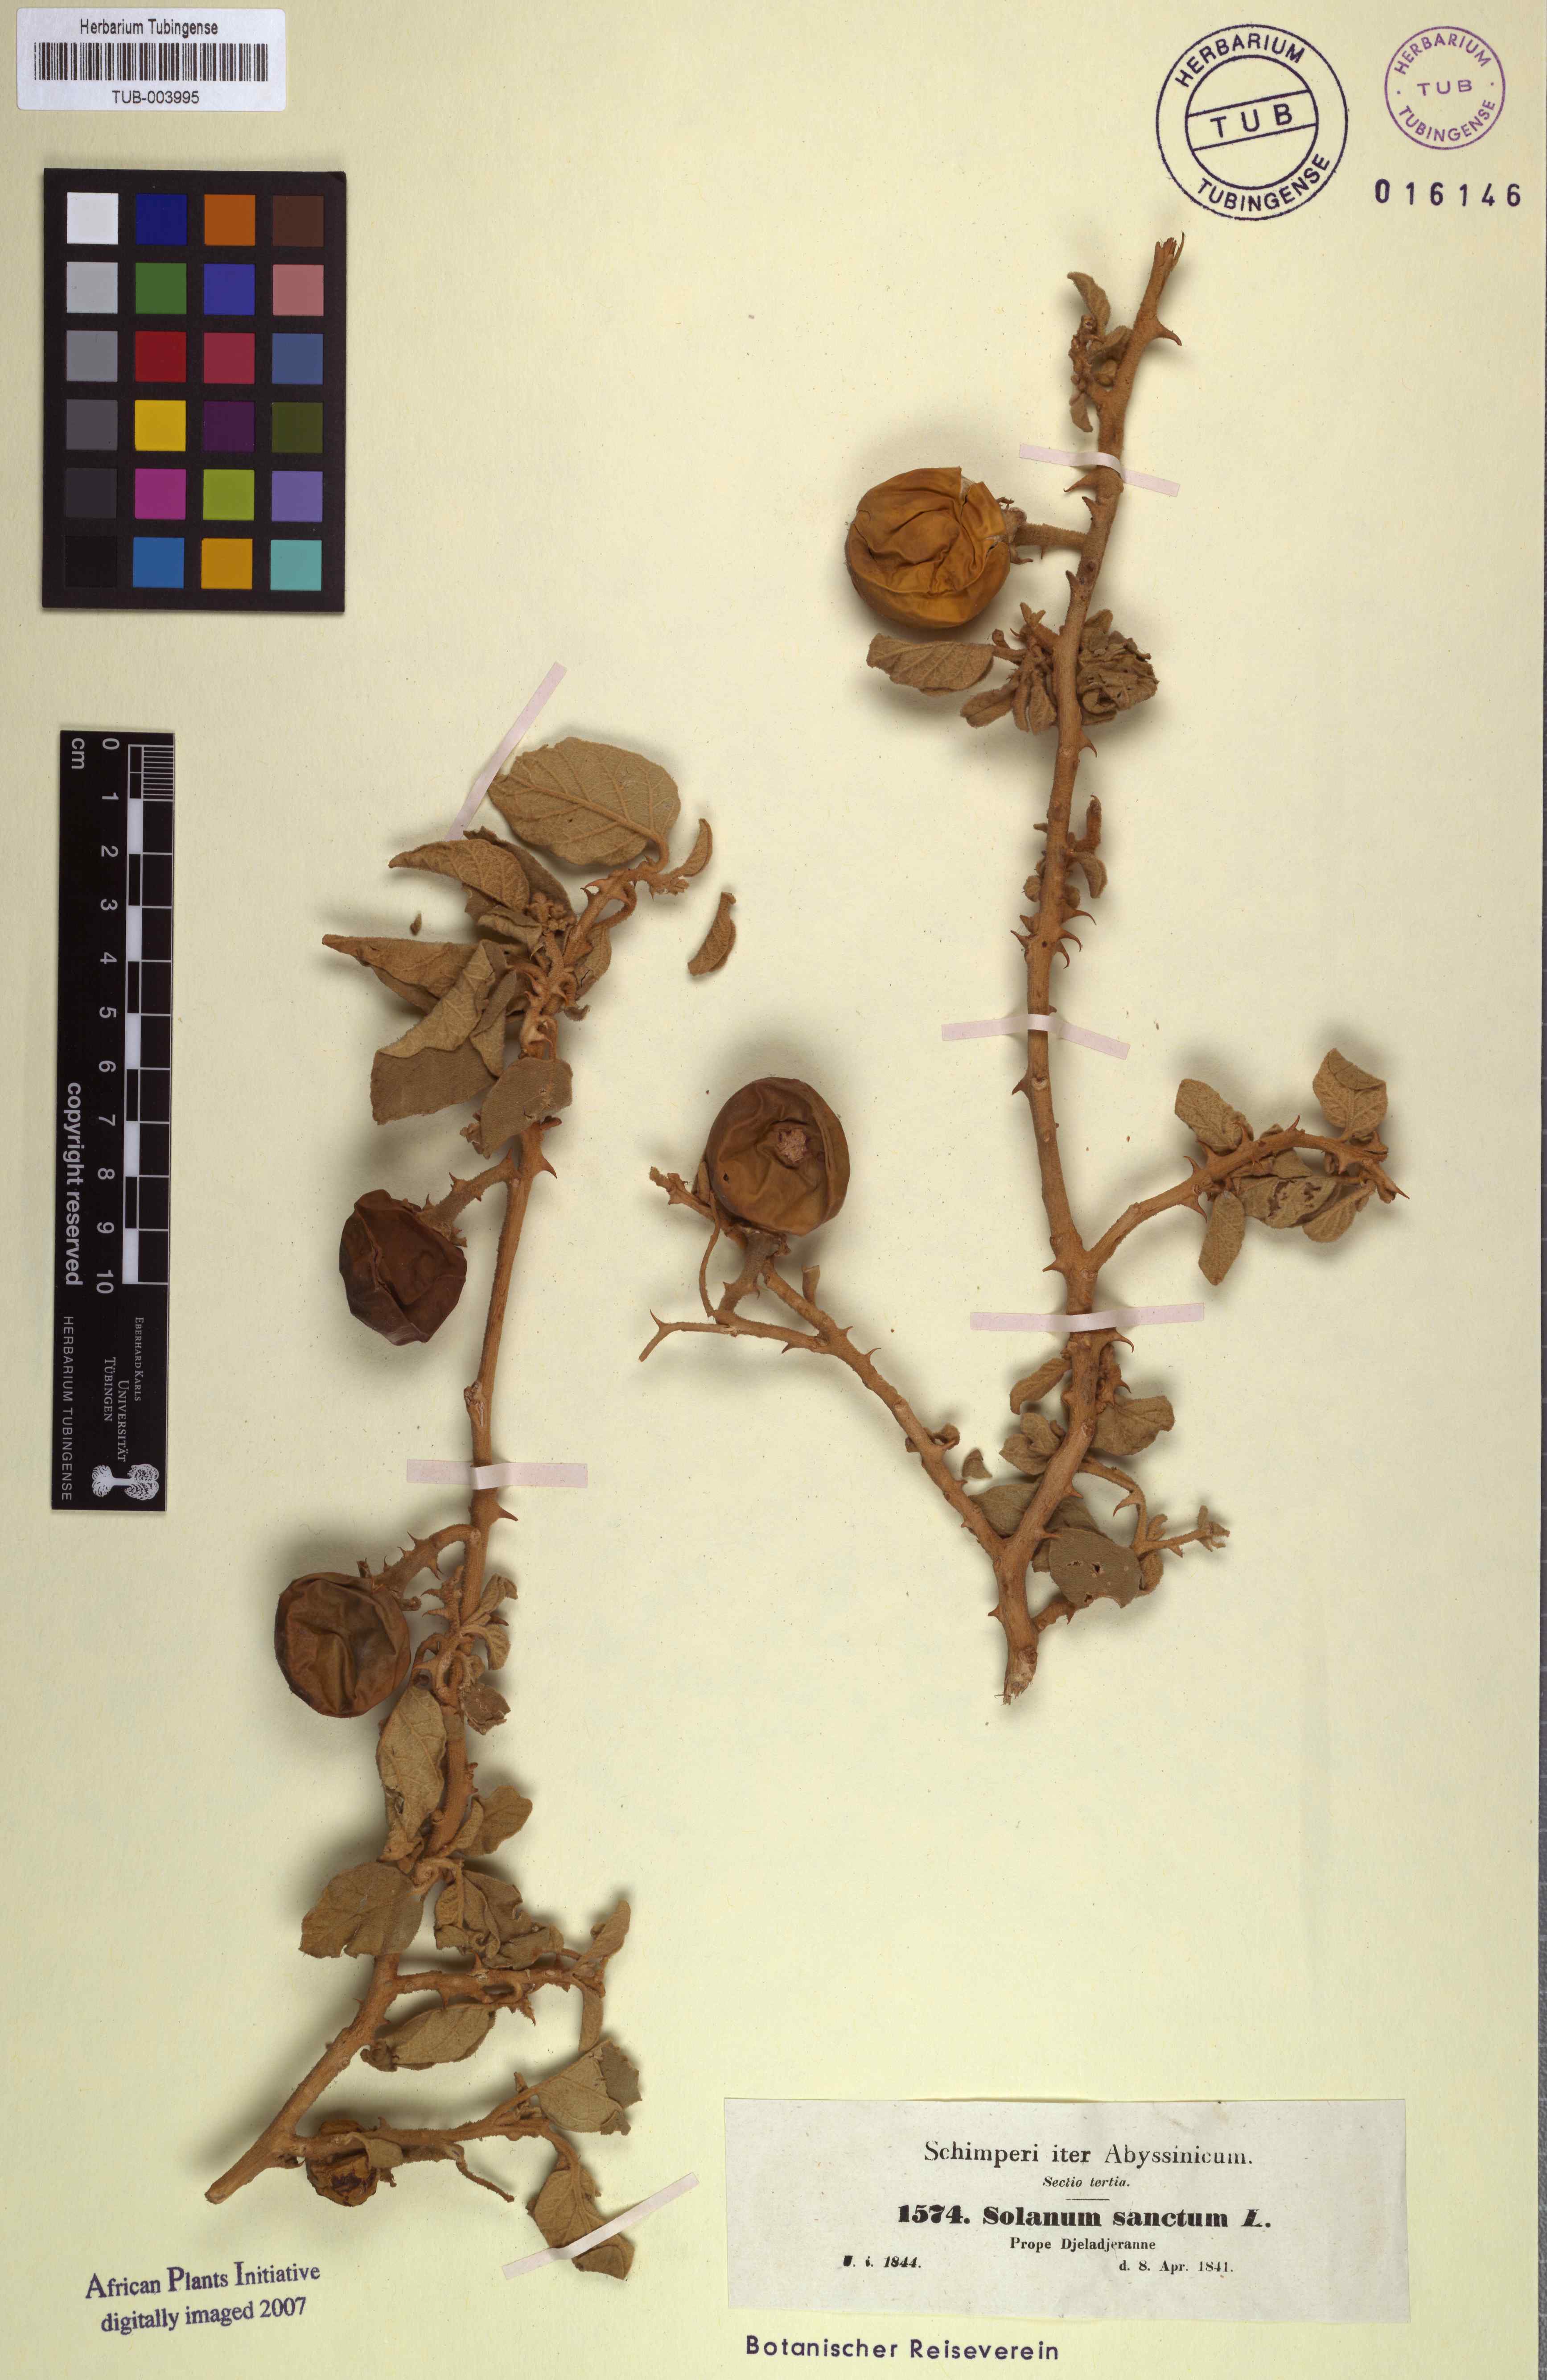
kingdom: Plantae
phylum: Tracheophyta
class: Magnoliopsida
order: Solanales
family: Solanaceae
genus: Solanum
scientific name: Solanum incanum
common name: Bitter apple
